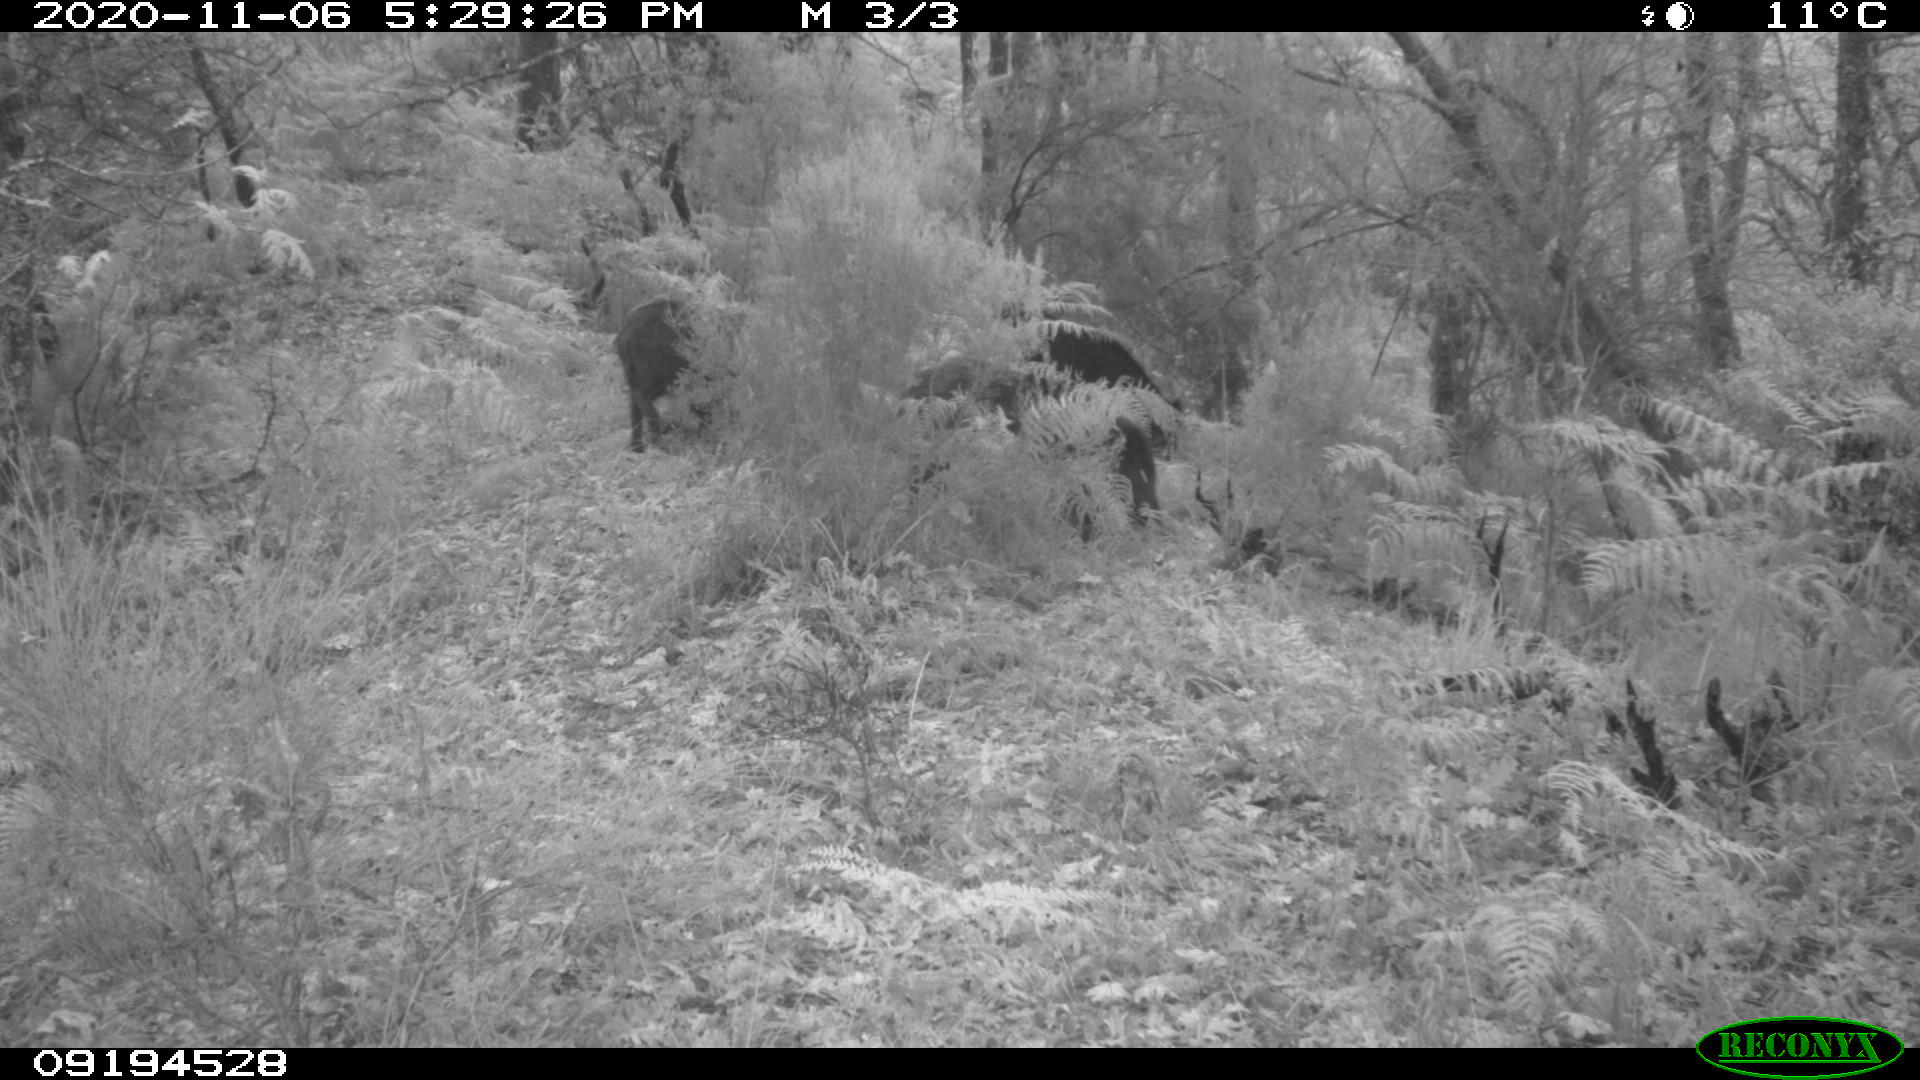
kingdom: Animalia
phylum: Chordata
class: Mammalia
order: Artiodactyla
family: Suidae
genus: Sus
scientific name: Sus scrofa
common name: Wild boar
